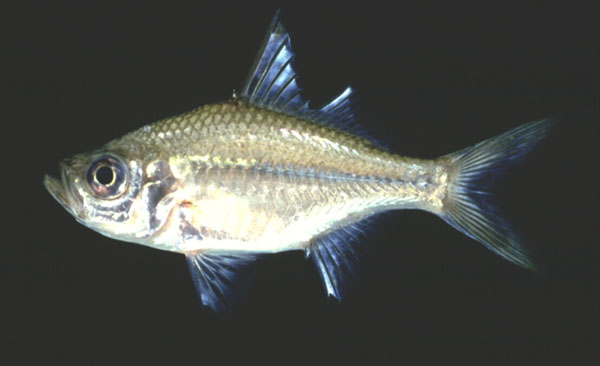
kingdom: Animalia
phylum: Chordata
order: Perciformes
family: Ambassidae
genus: Ambassis
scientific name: Ambassis ambassis
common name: Commerson's glassy perchlet
